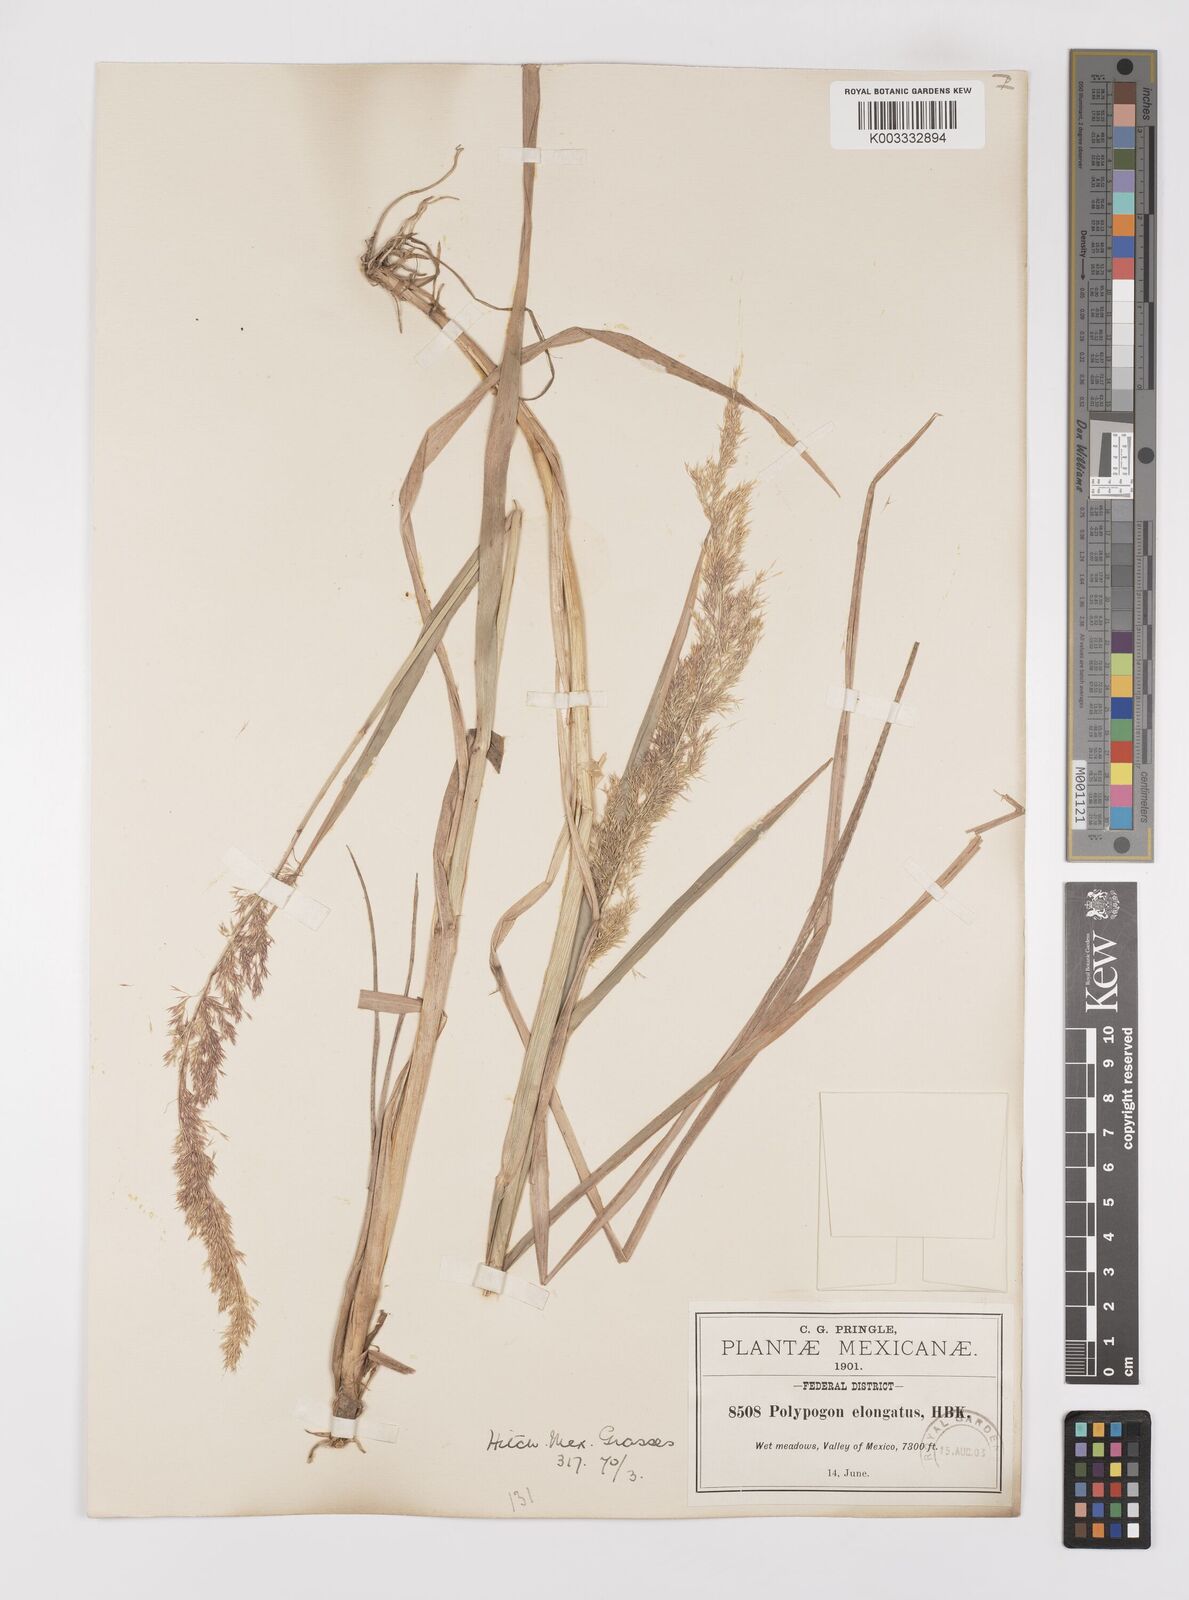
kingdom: Plantae
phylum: Tracheophyta
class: Liliopsida
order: Poales
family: Poaceae
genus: Polypogon
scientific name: Polypogon elongatus
